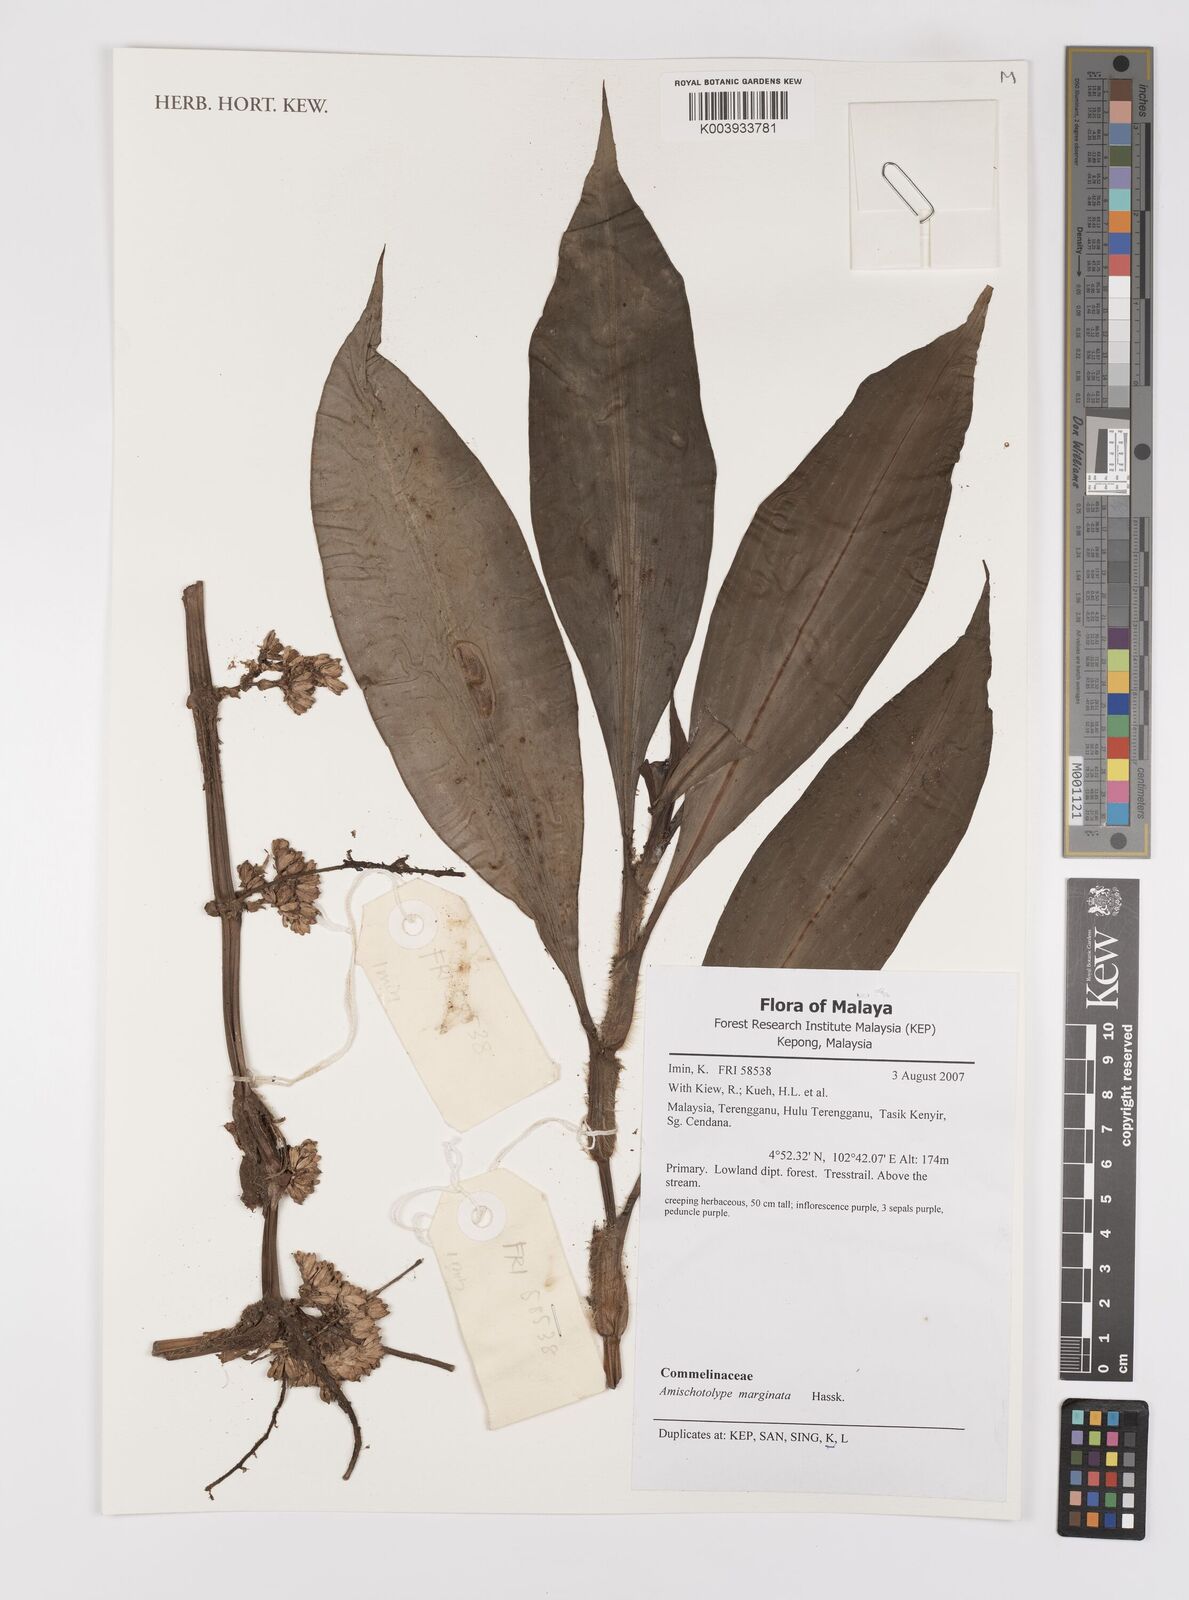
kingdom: Plantae
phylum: Tracheophyta
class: Liliopsida
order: Commelinales
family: Commelinaceae
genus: Amischotolype
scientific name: Amischotolype marginata
